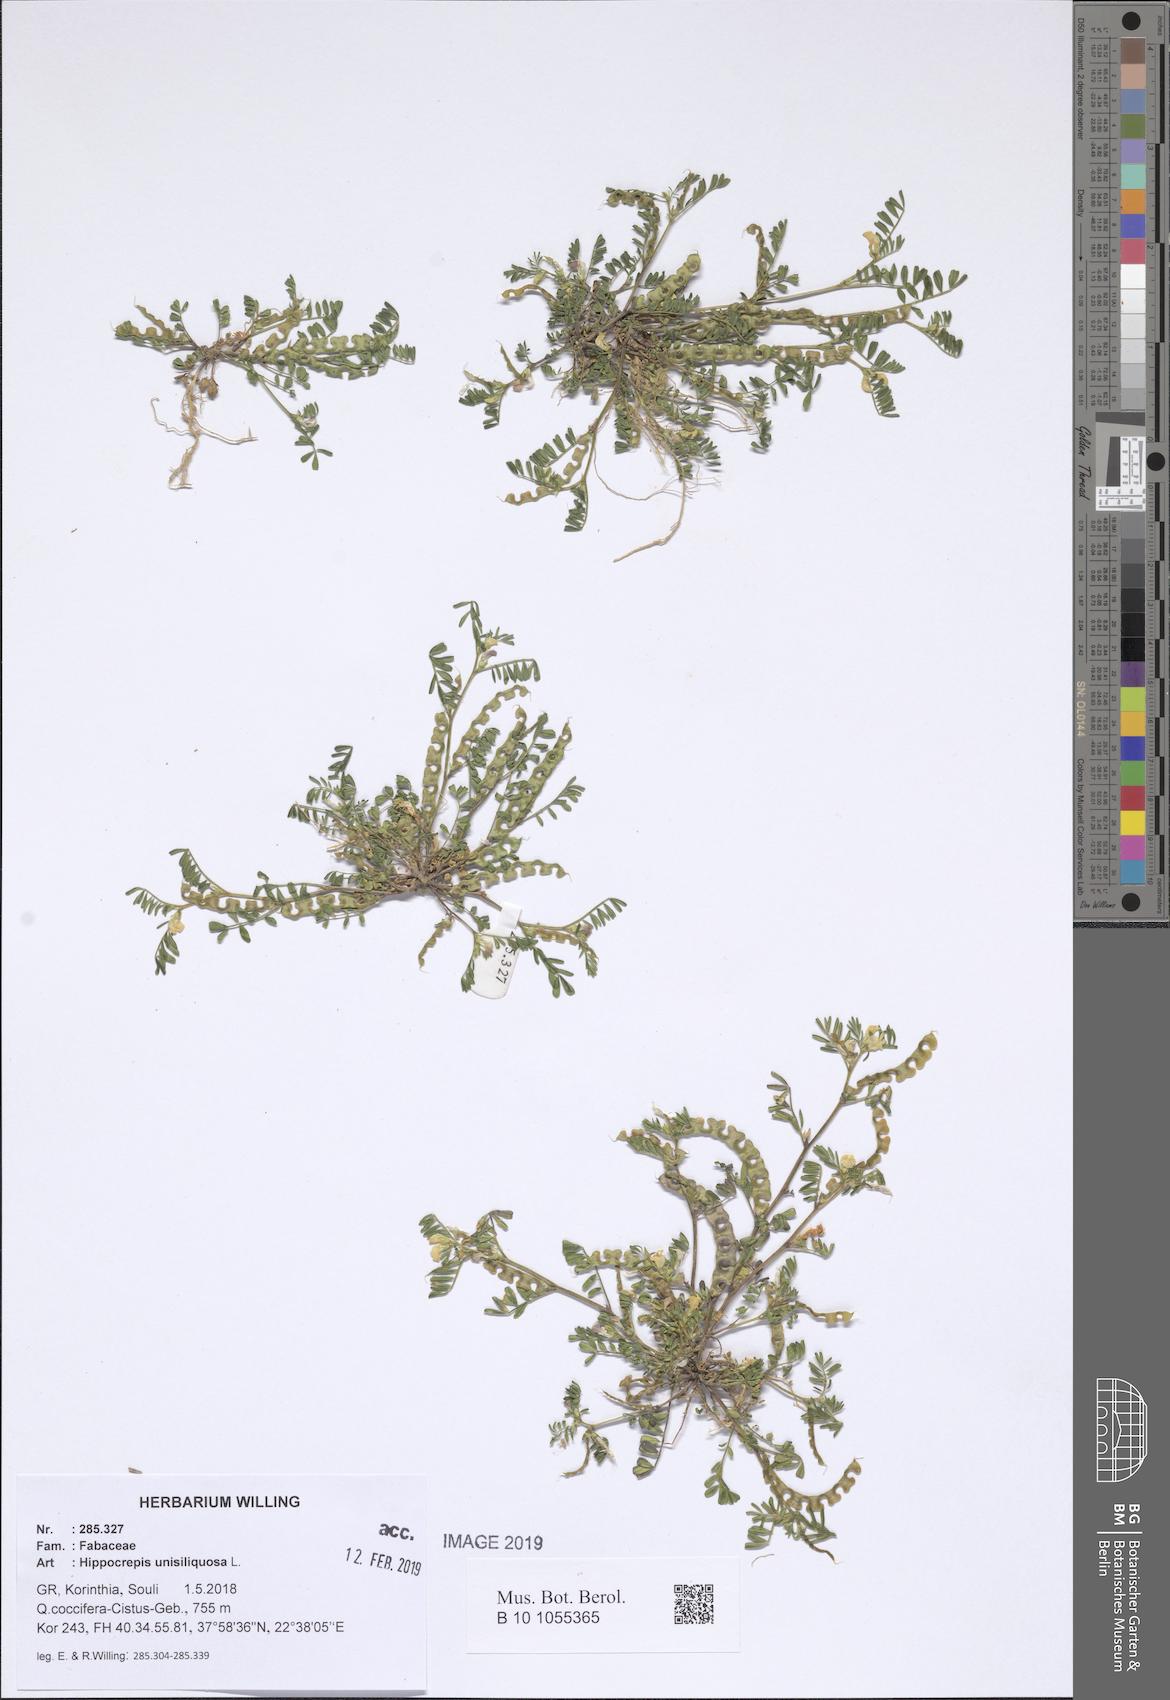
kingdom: Plantae
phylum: Tracheophyta
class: Magnoliopsida
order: Fabales
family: Fabaceae
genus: Hippocrepis
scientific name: Hippocrepis unisiliquosa
